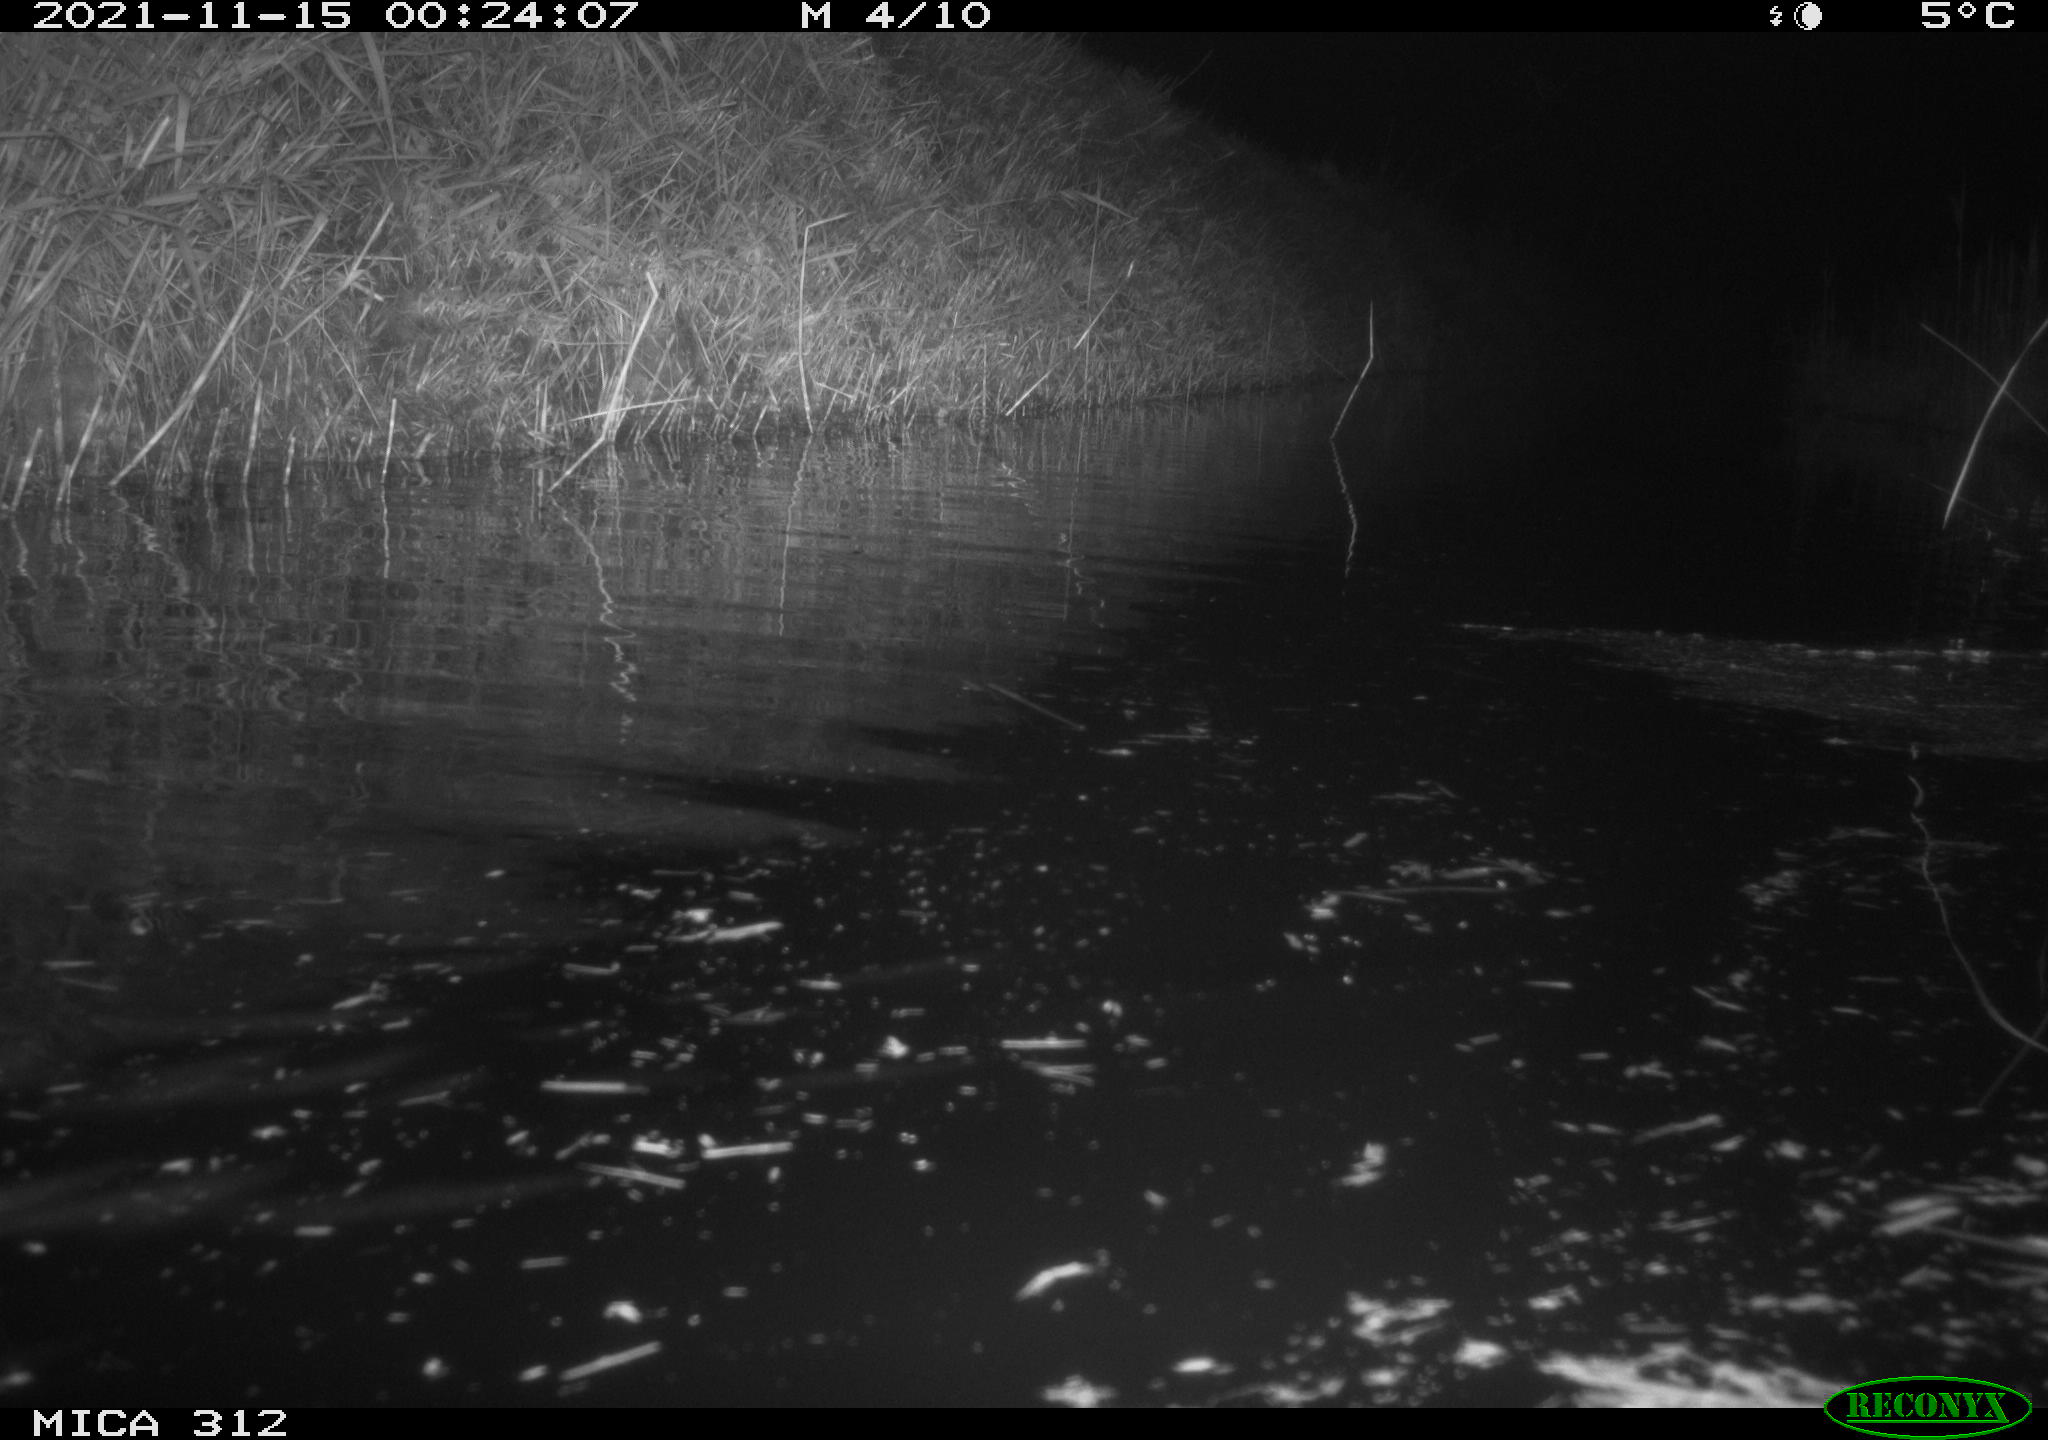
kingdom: Animalia
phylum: Chordata
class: Mammalia
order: Rodentia
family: Muridae
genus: Rattus
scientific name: Rattus norvegicus
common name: Brown rat
